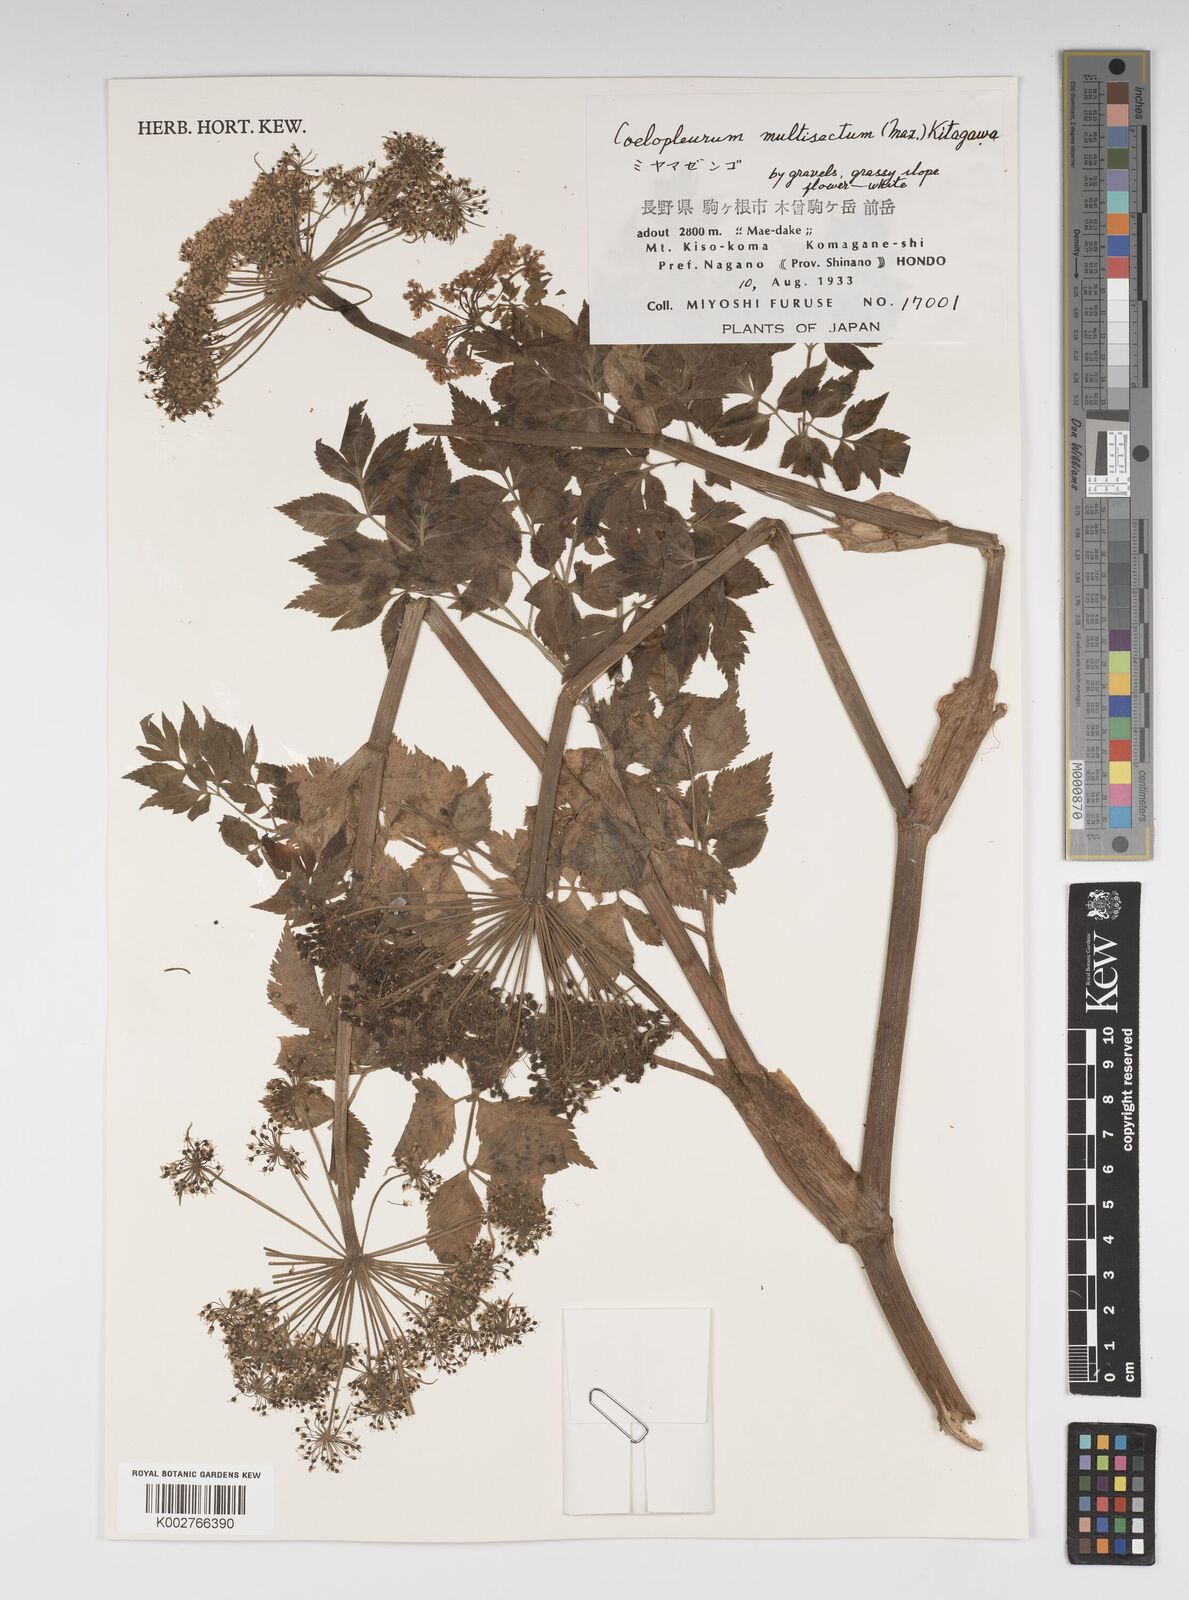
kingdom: Plantae
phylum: Tracheophyta
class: Magnoliopsida
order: Apiales
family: Apiaceae
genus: Angelica
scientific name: Angelica
